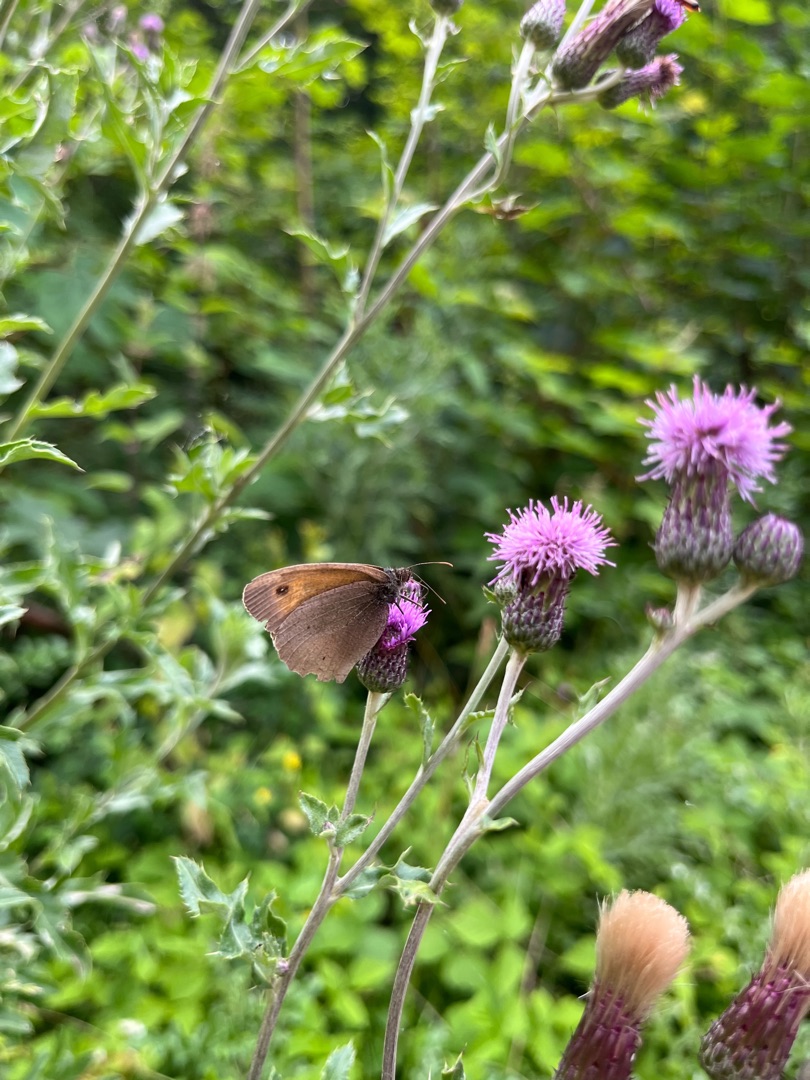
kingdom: Animalia
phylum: Arthropoda
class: Insecta
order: Lepidoptera
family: Nymphalidae
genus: Maniola
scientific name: Maniola jurtina
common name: Græsrandøje
